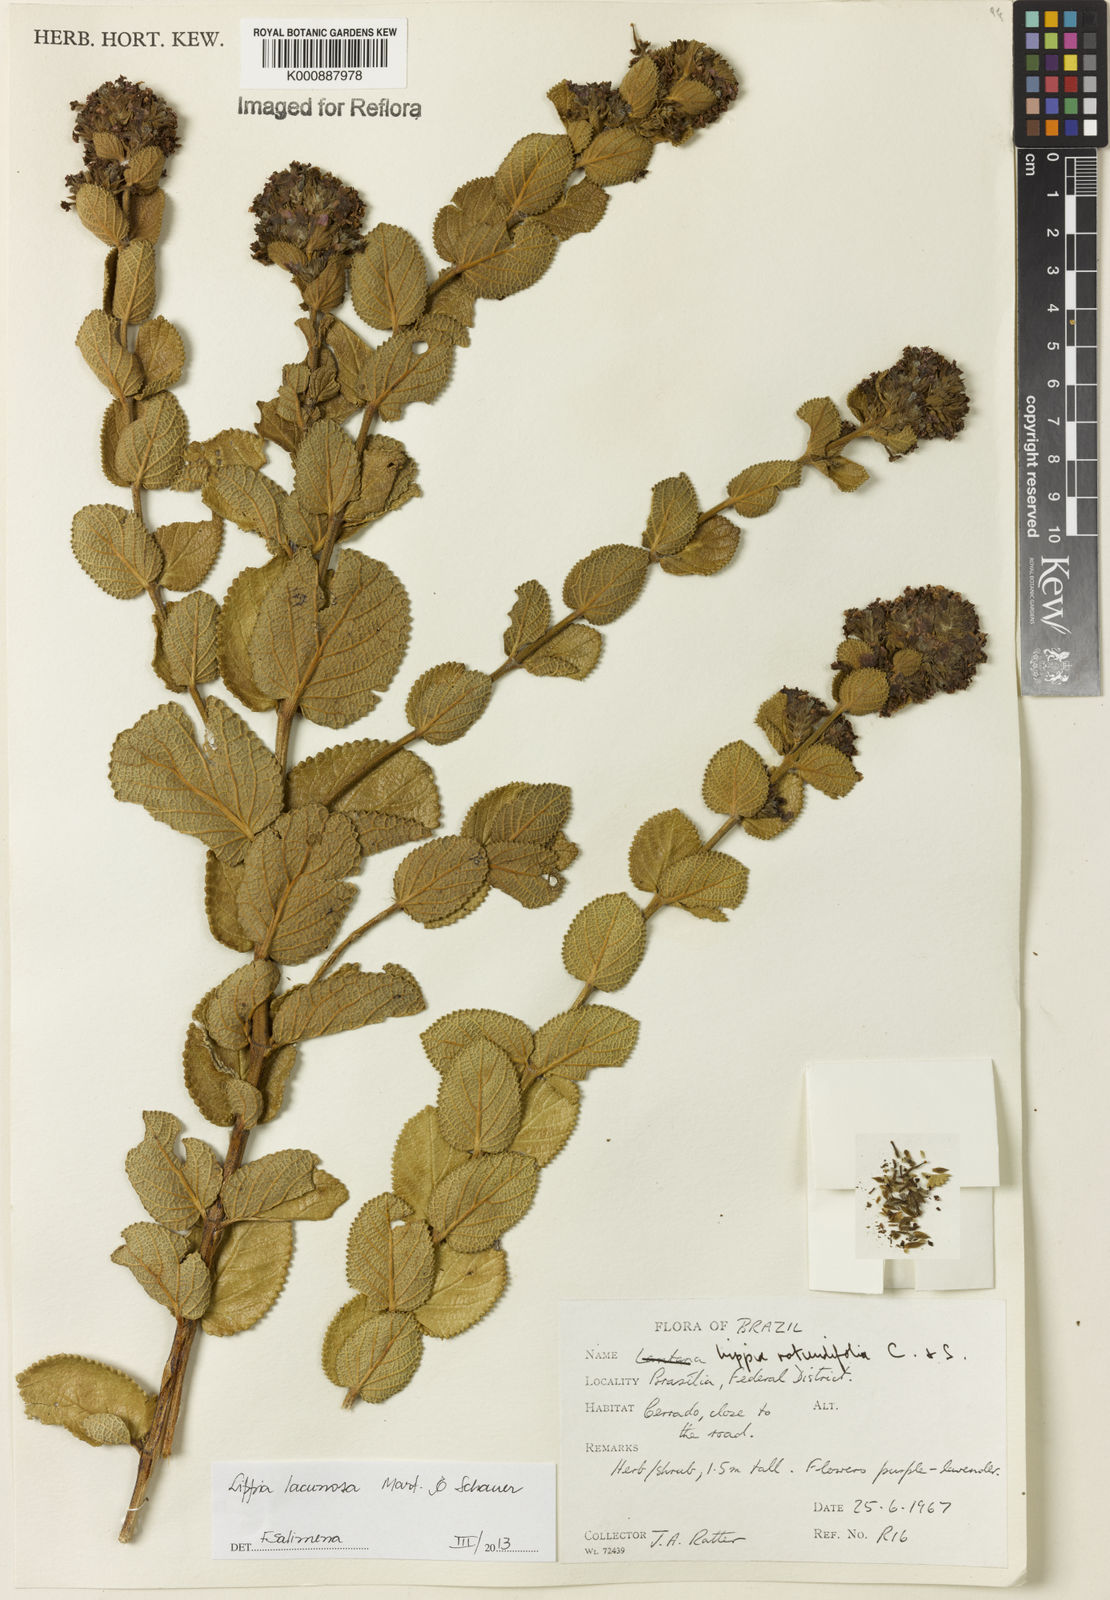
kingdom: Plantae
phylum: Tracheophyta
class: Magnoliopsida
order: Lamiales
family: Verbenaceae
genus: Lippia
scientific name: Lippia lacunosa
